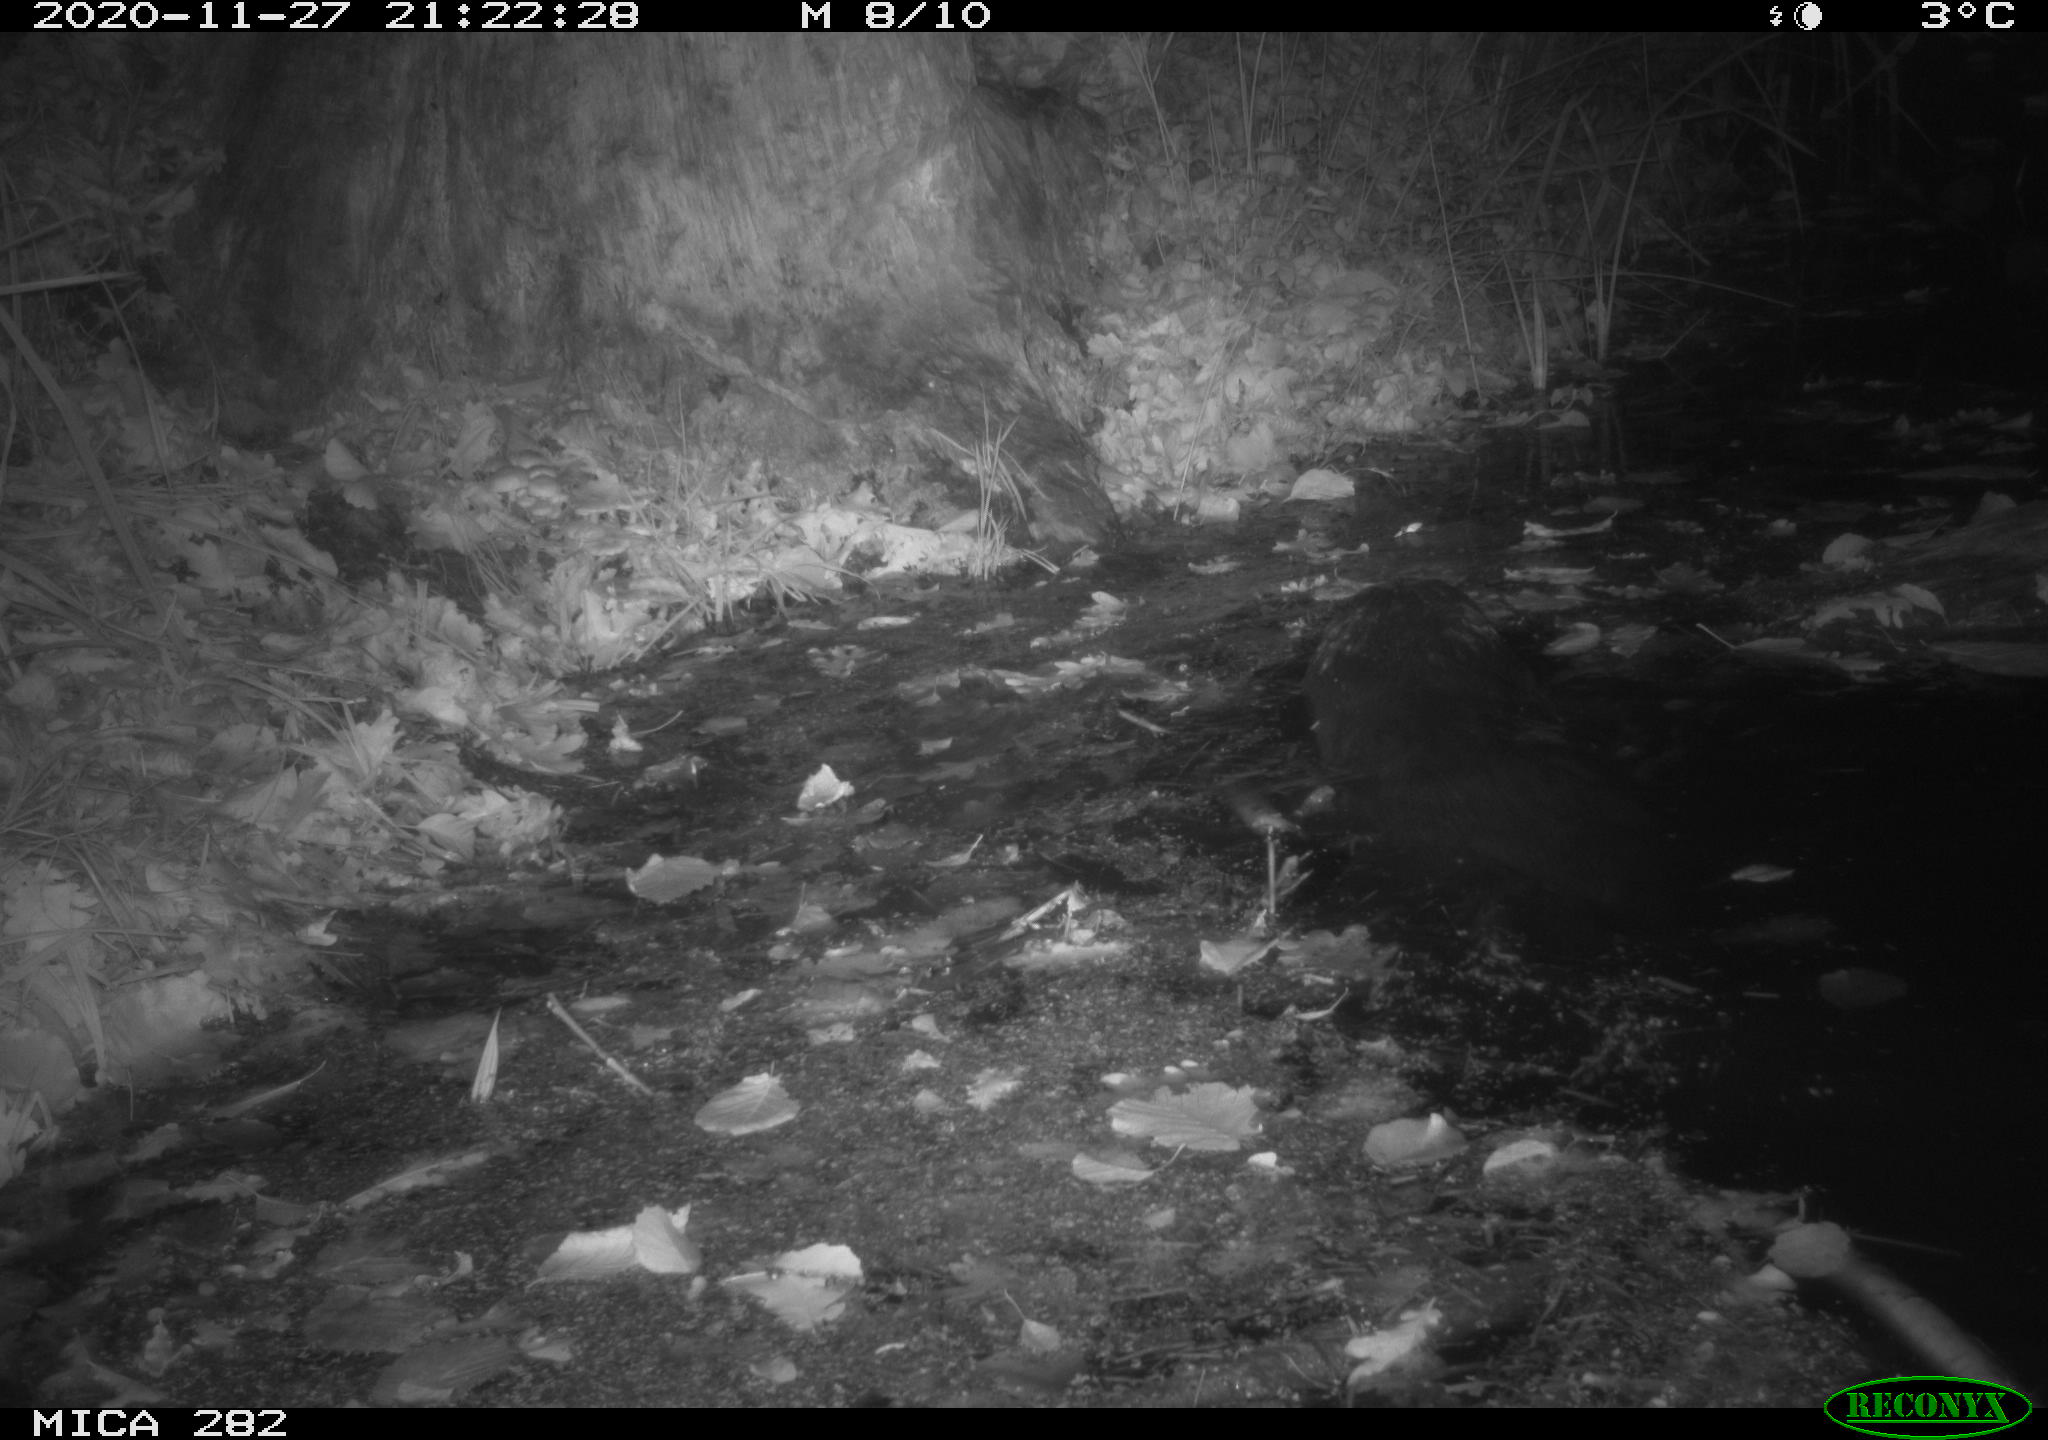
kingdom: Animalia
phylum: Chordata
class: Mammalia
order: Rodentia
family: Castoridae
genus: Castor
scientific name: Castor fiber
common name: Eurasian beaver
